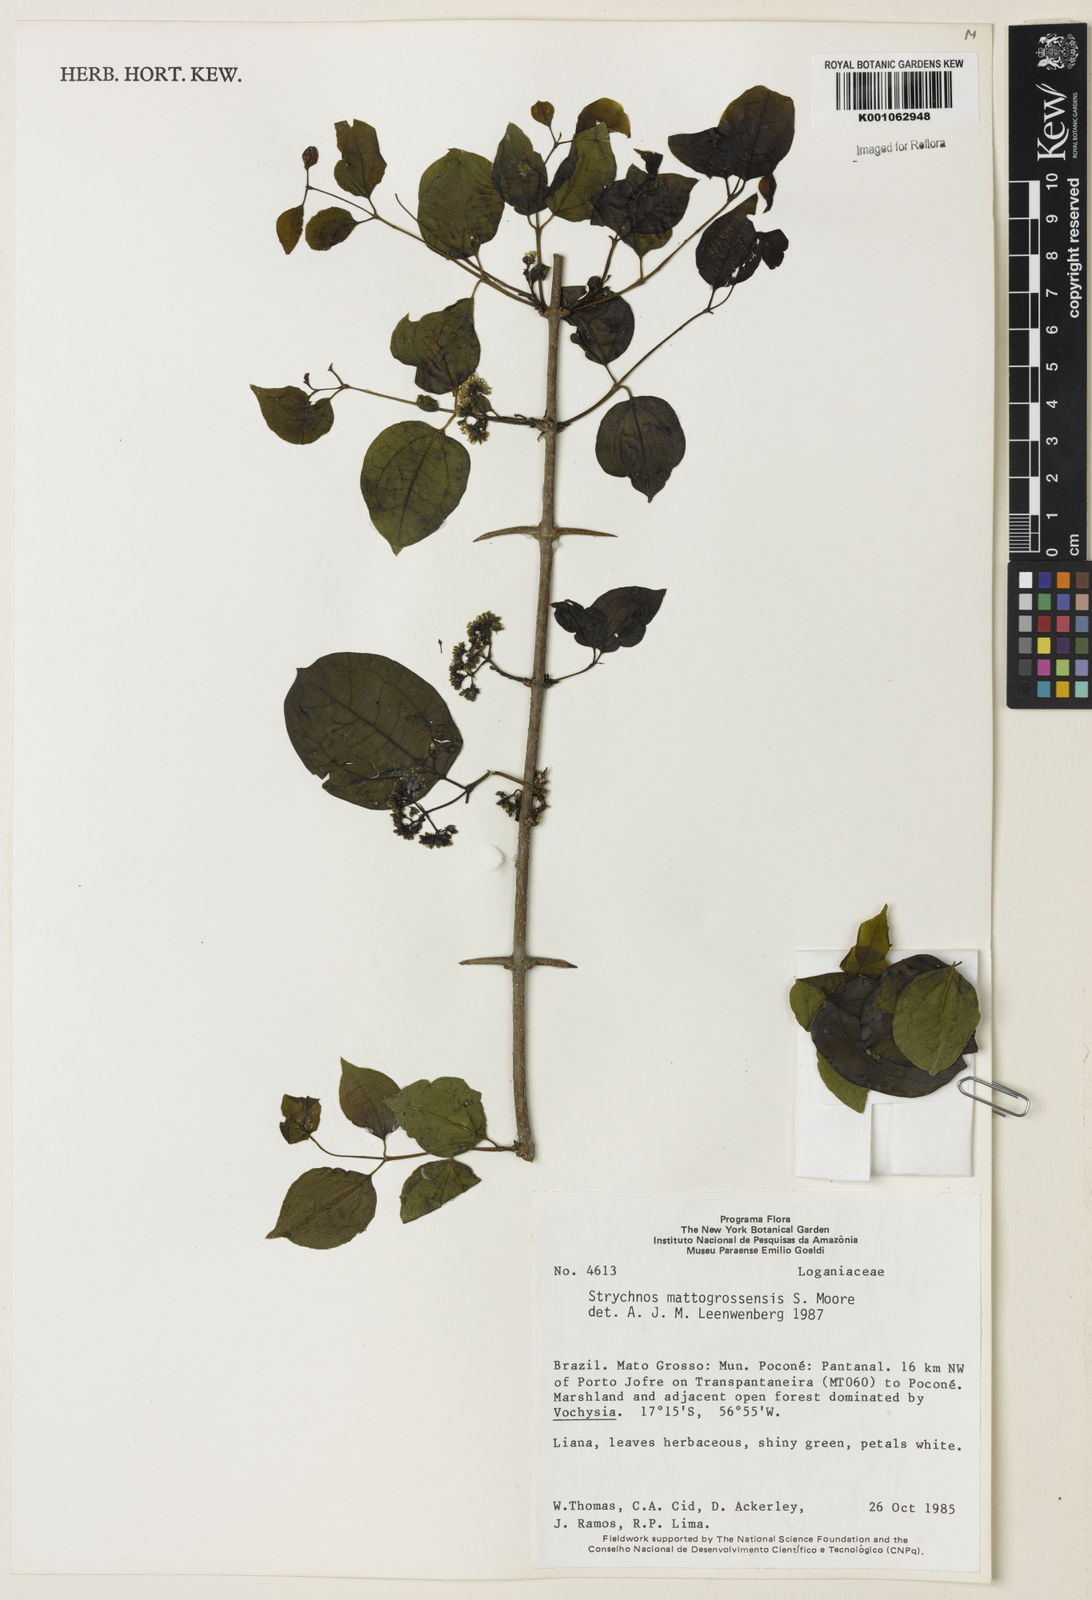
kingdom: Plantae
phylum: Tracheophyta
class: Magnoliopsida
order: Gentianales
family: Loganiaceae
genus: Strychnos
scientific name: Strychnos mattogrossensis
